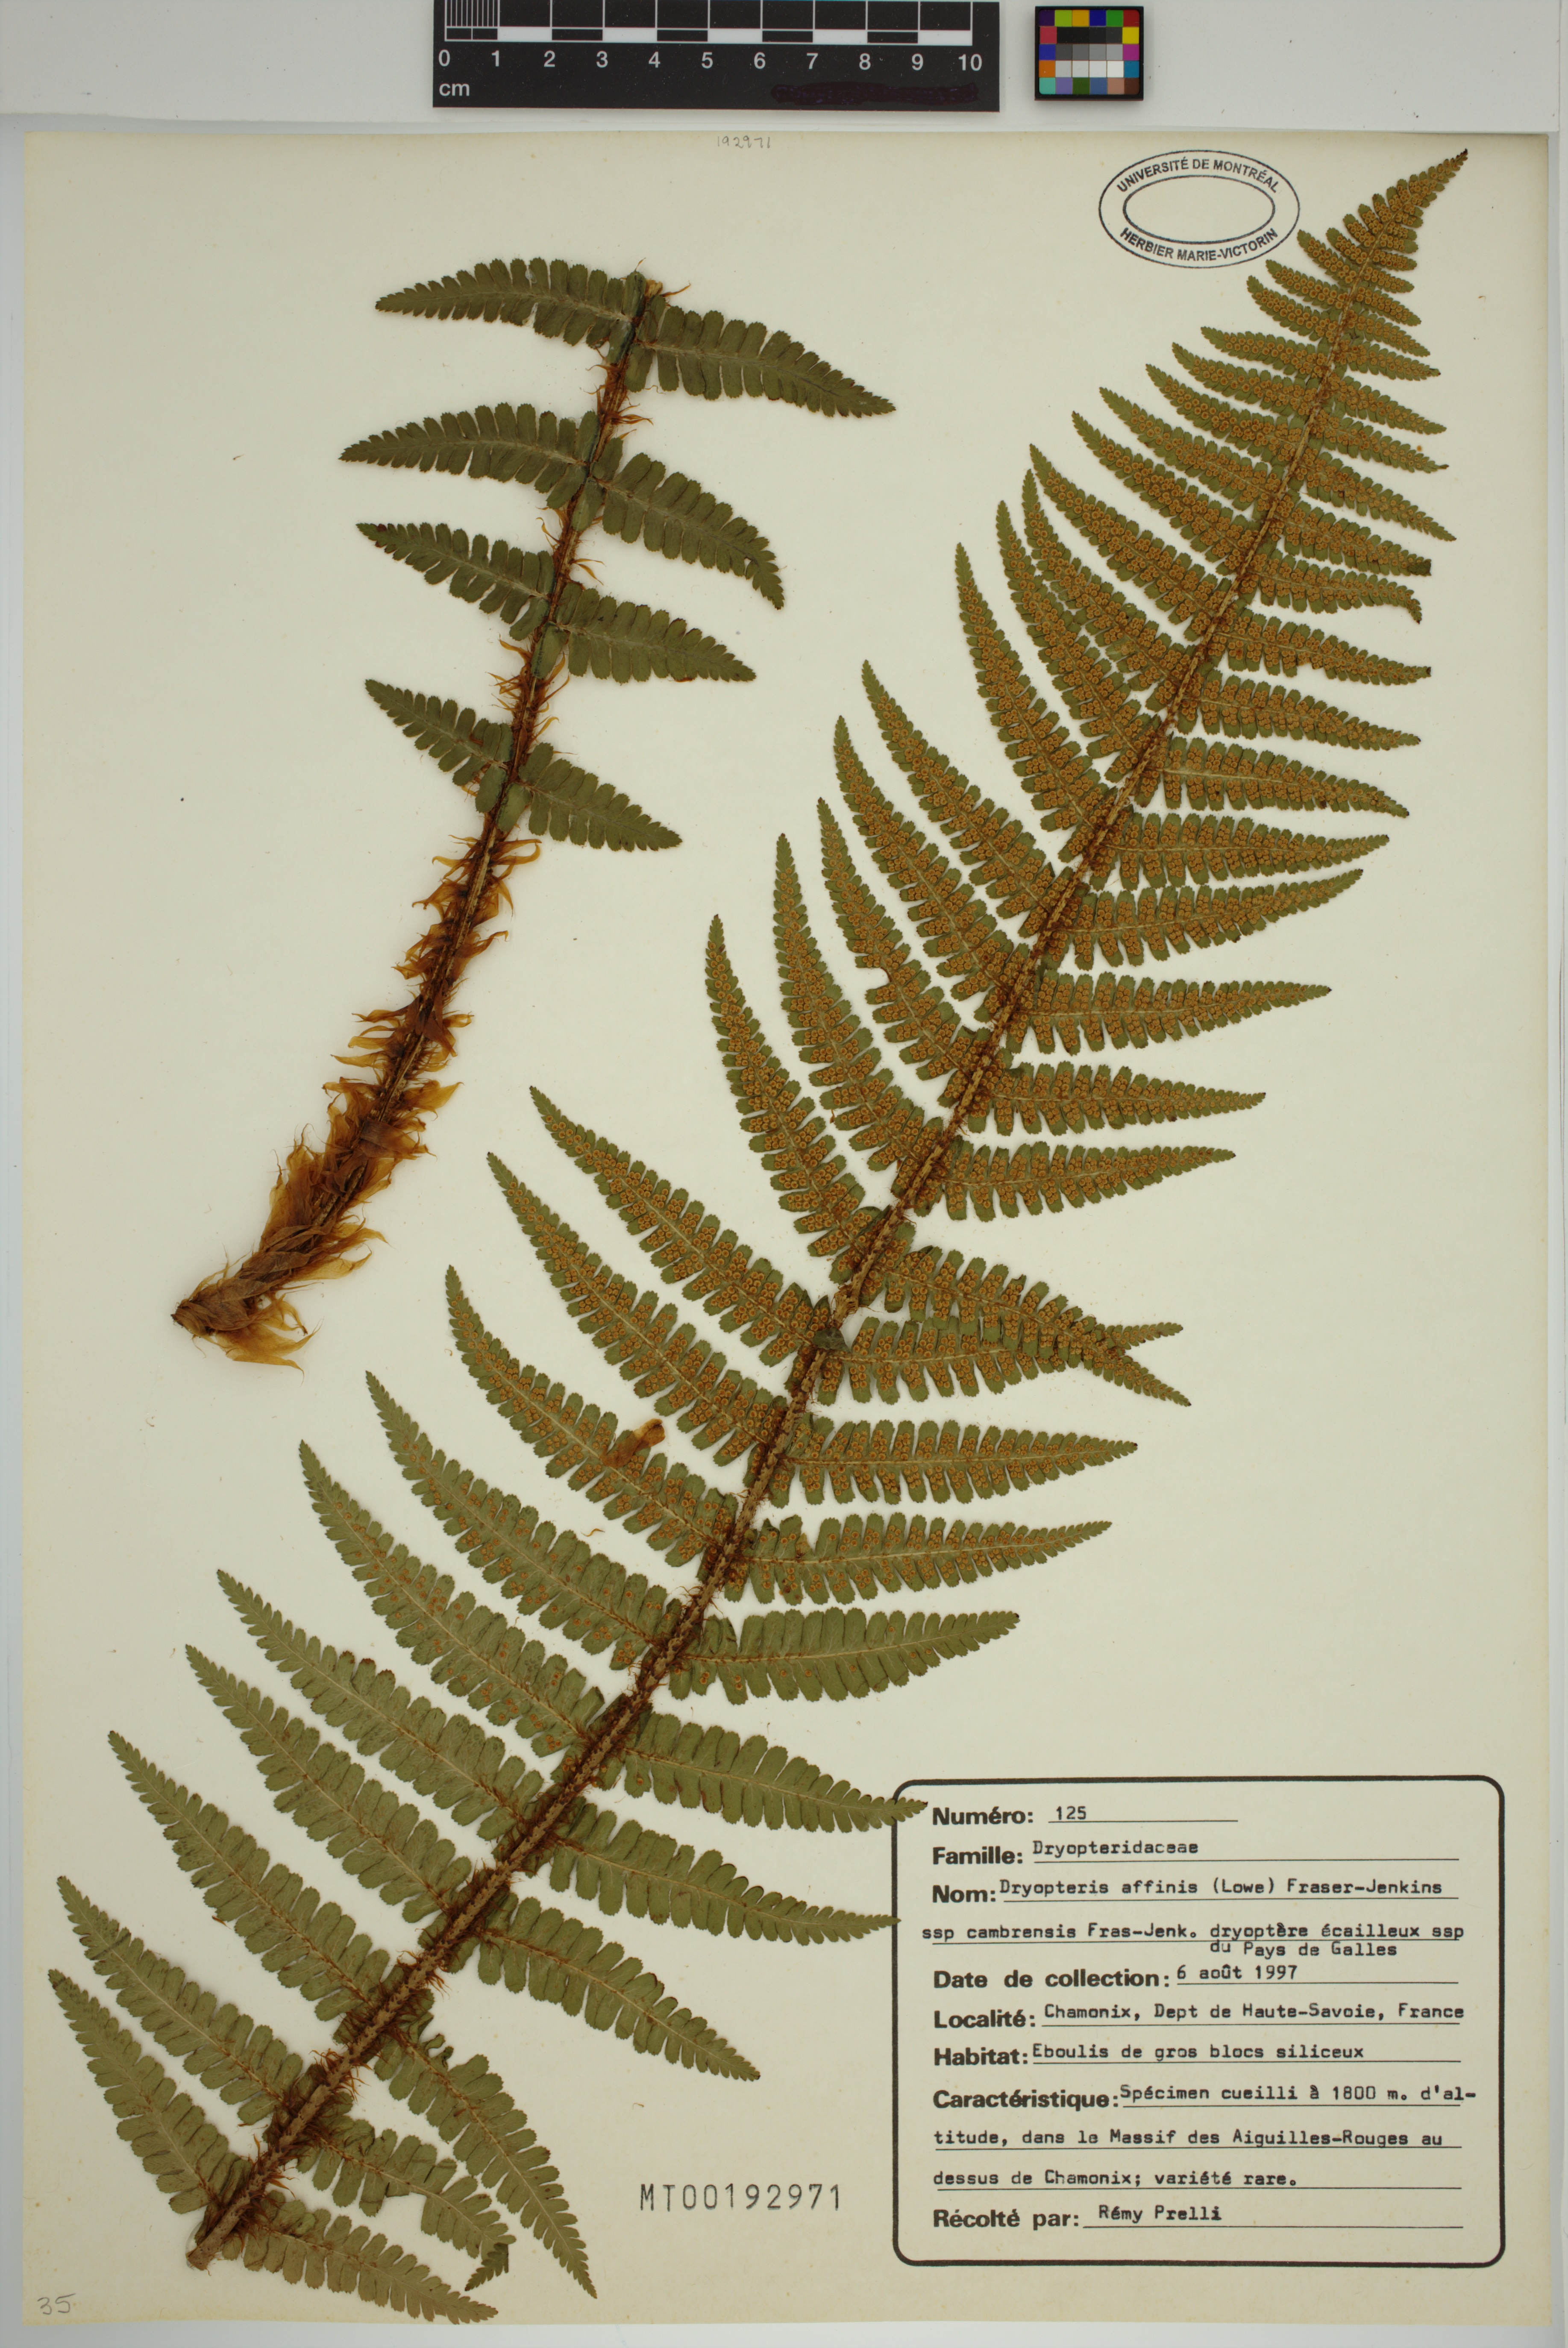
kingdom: Plantae
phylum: Tracheophyta
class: Polypodiopsida
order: Polypodiales
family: Dryopteridaceae
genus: Dryopteris
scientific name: Dryopteris cambrensis
